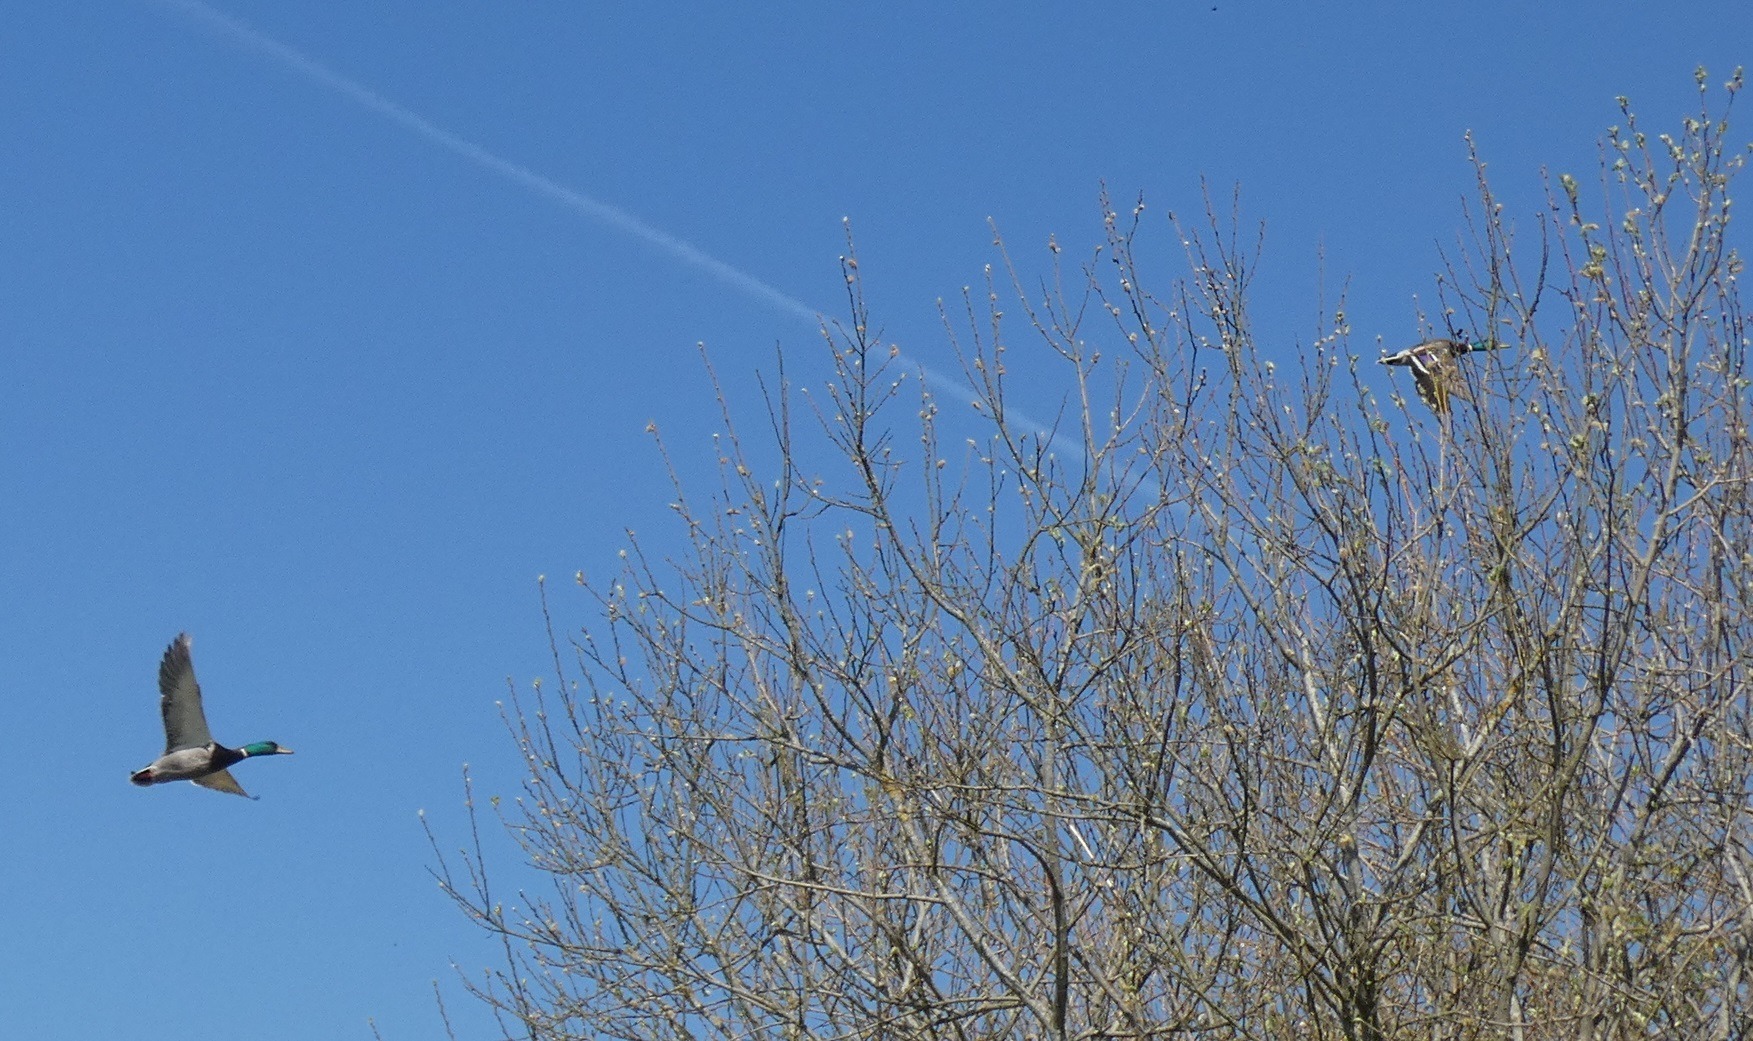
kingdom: Animalia
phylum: Chordata
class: Aves
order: Anseriformes
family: Anatidae
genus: Anas
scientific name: Anas platyrhynchos
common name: Gråand
